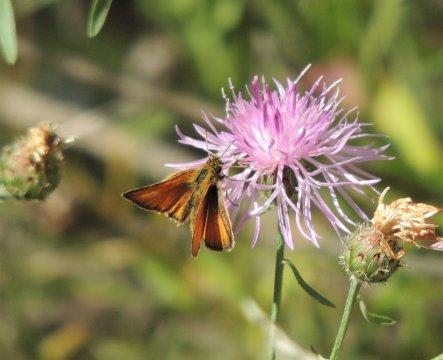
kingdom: Animalia
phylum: Arthropoda
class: Insecta
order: Lepidoptera
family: Hesperiidae
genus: Thymelicus
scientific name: Thymelicus lineola
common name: European Skipper
